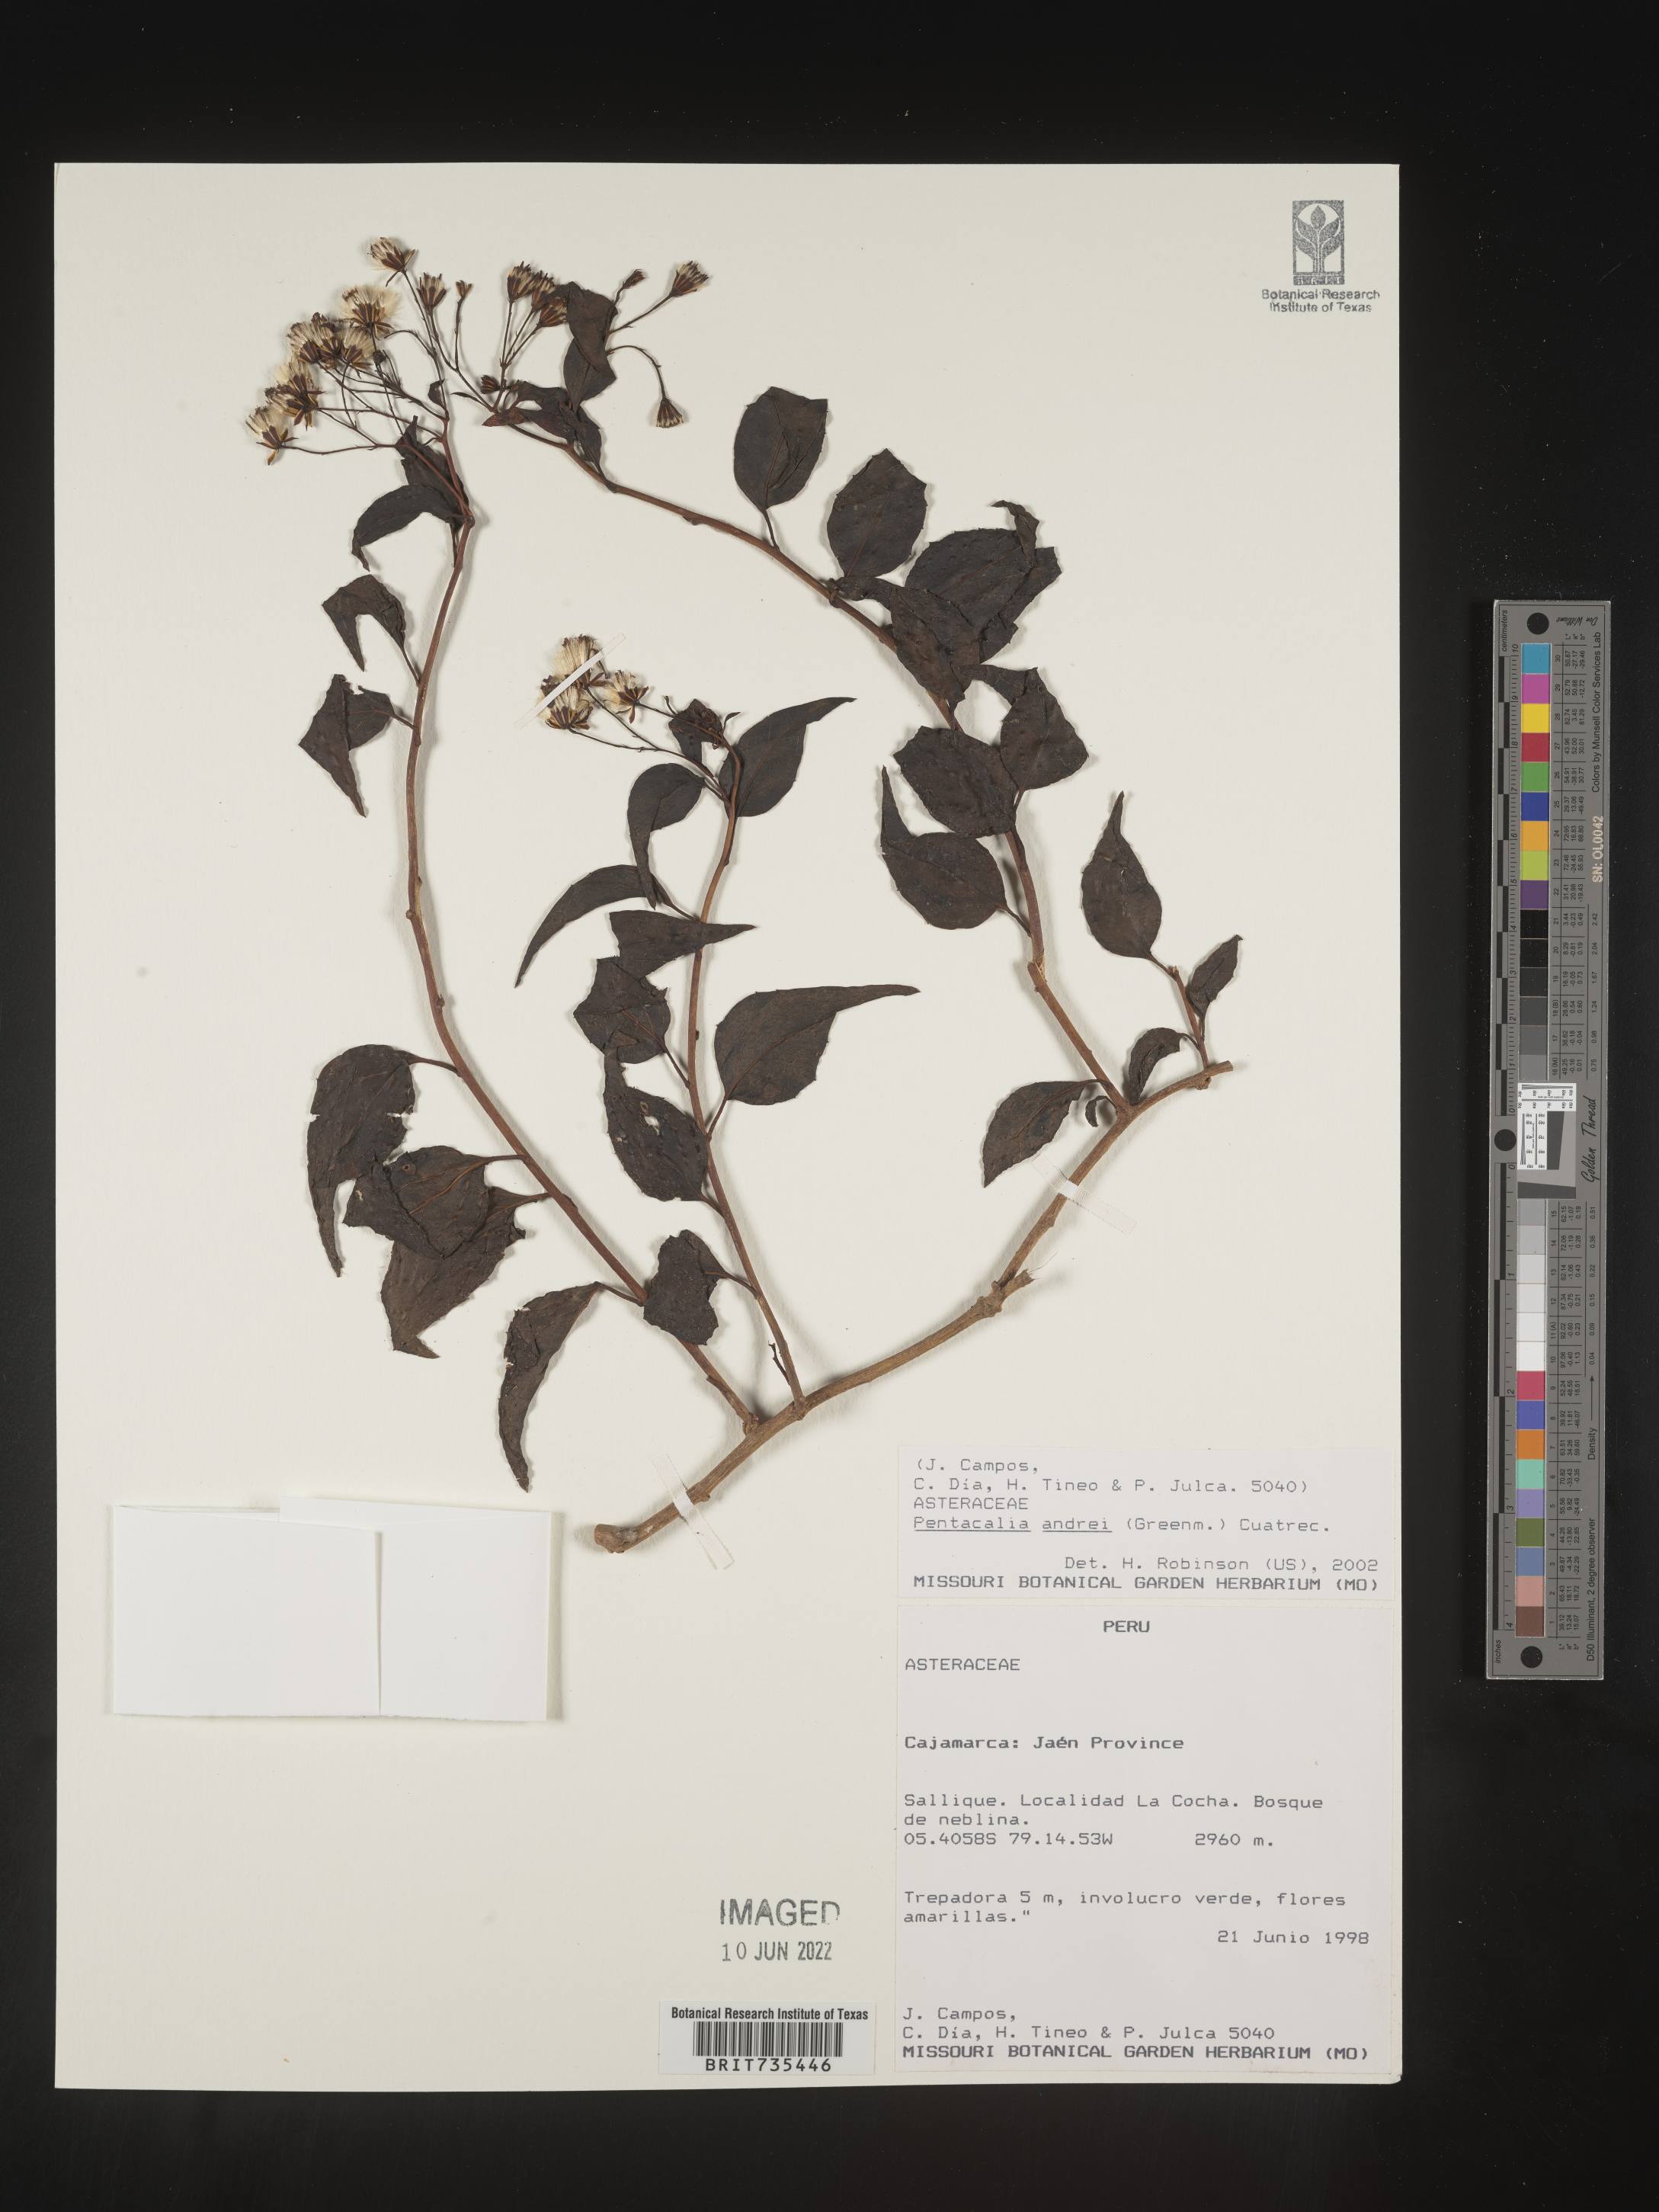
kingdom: Plantae
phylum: Tracheophyta
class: Magnoliopsida
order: Asterales
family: Asteraceae
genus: Pentacalia
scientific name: Pentacalia
